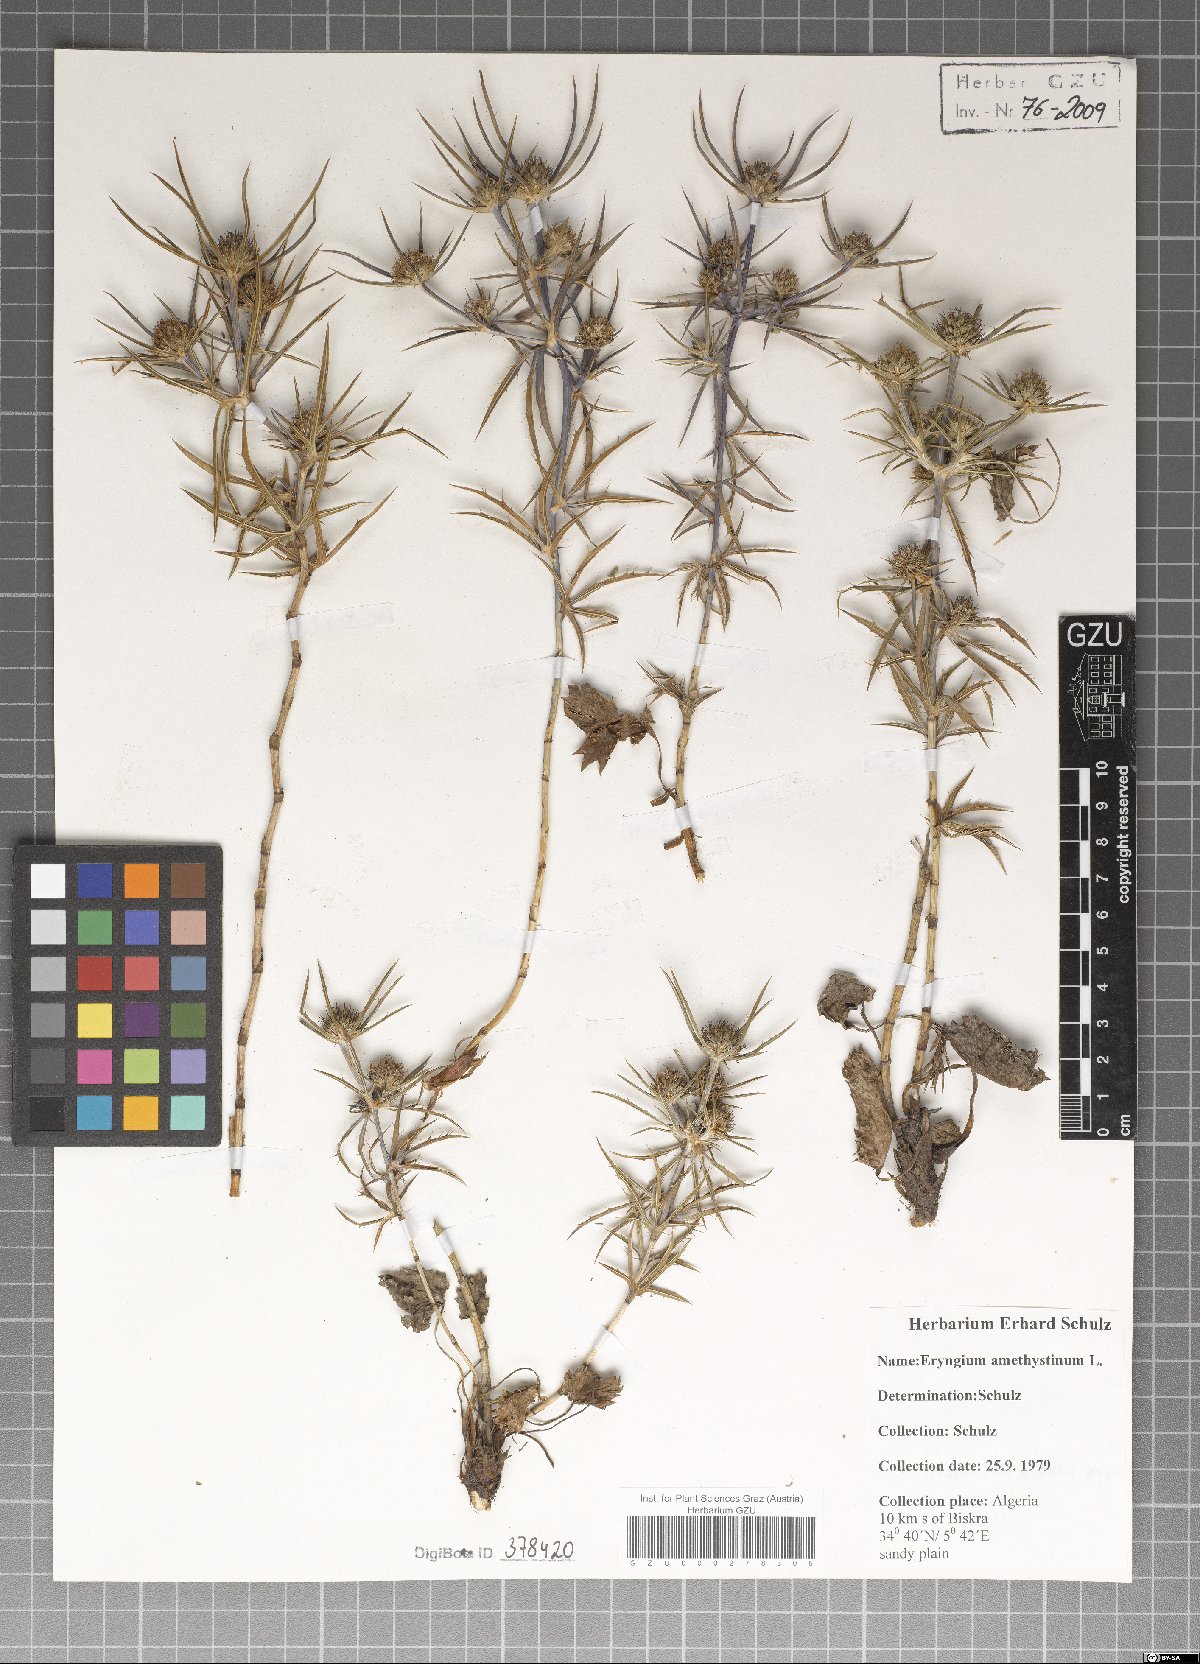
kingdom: Plantae
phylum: Tracheophyta
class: Magnoliopsida
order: Apiales
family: Apiaceae
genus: Eryngium
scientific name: Eryngium amethystinum
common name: Amethyst eryngo
